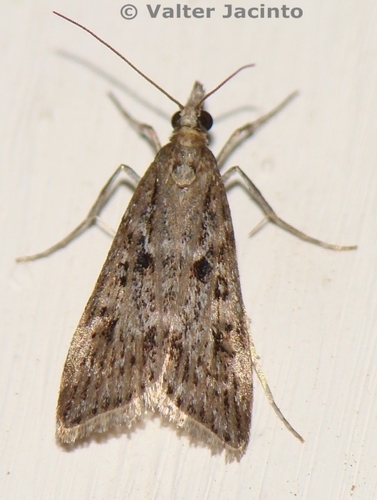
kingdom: Animalia
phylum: Arthropoda
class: Insecta
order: Lepidoptera
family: Crambidae
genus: Eudonia
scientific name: Eudonia angustea
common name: Narrow-winged grey
